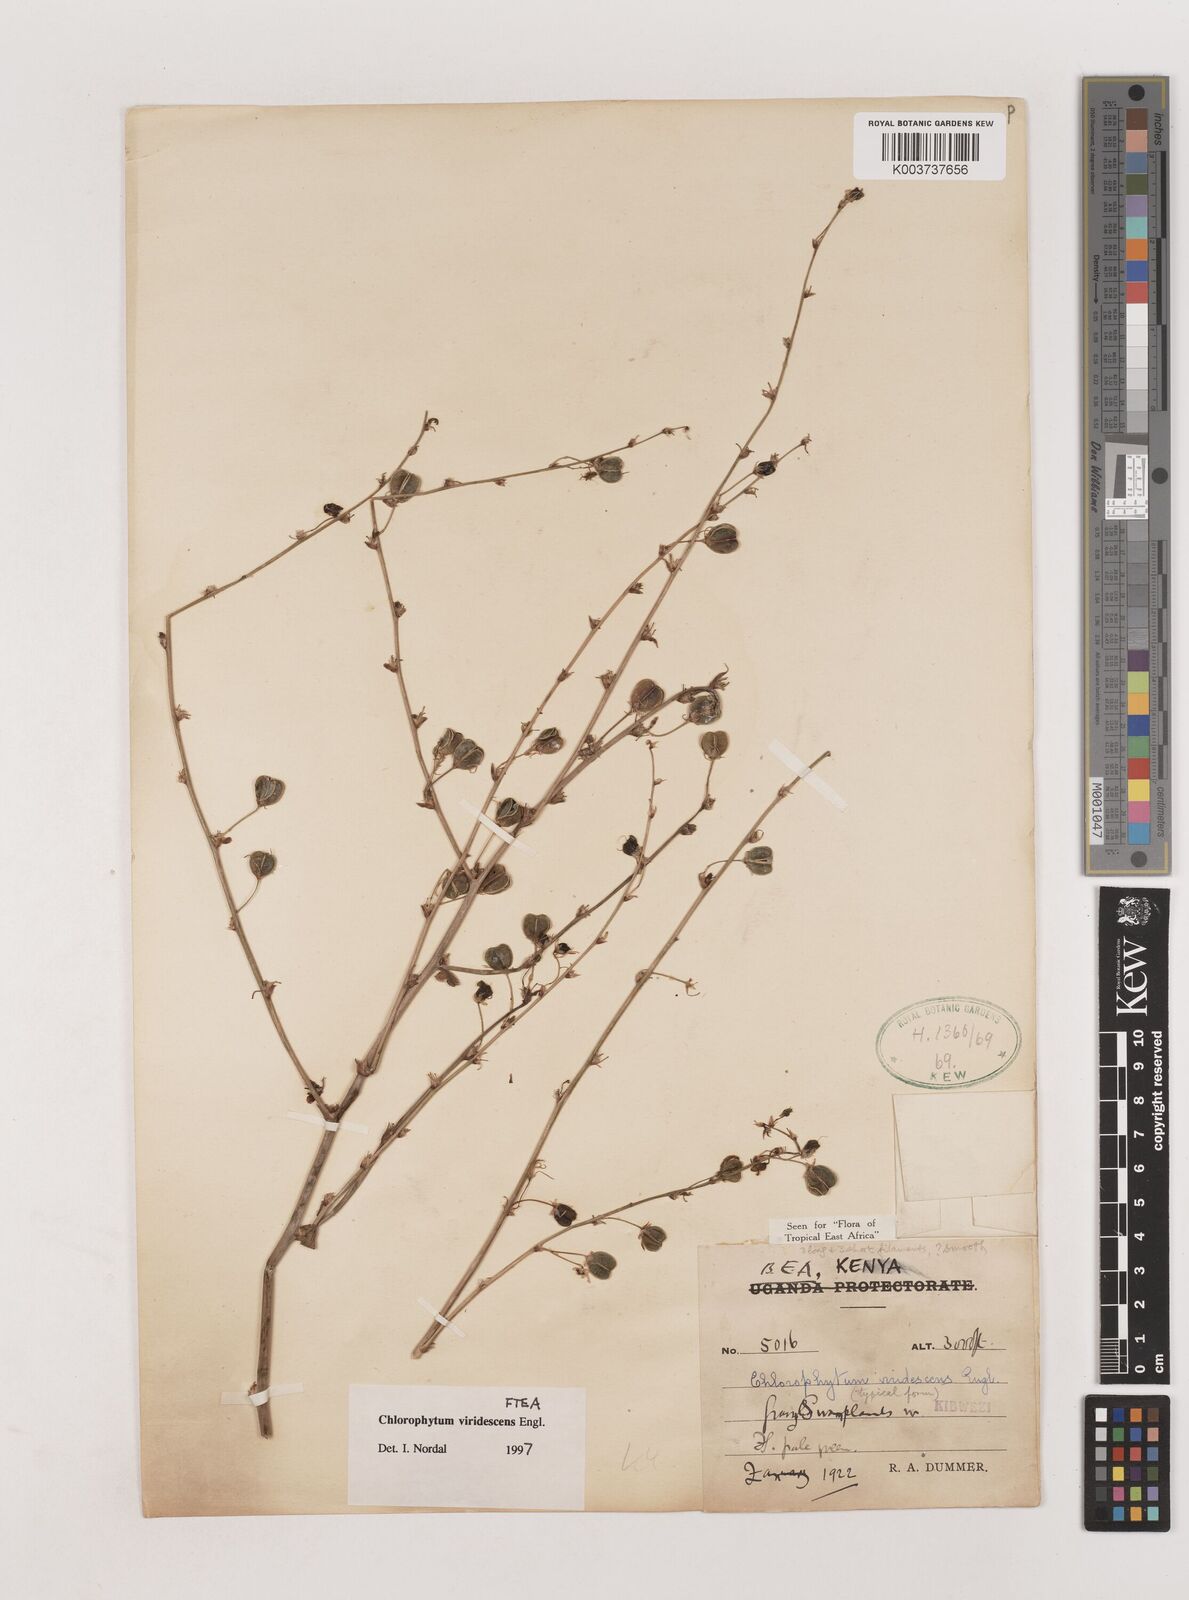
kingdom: Plantae
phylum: Tracheophyta
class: Liliopsida
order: Asparagales
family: Asparagaceae
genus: Chlorophytum
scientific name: Chlorophytum viridescens
